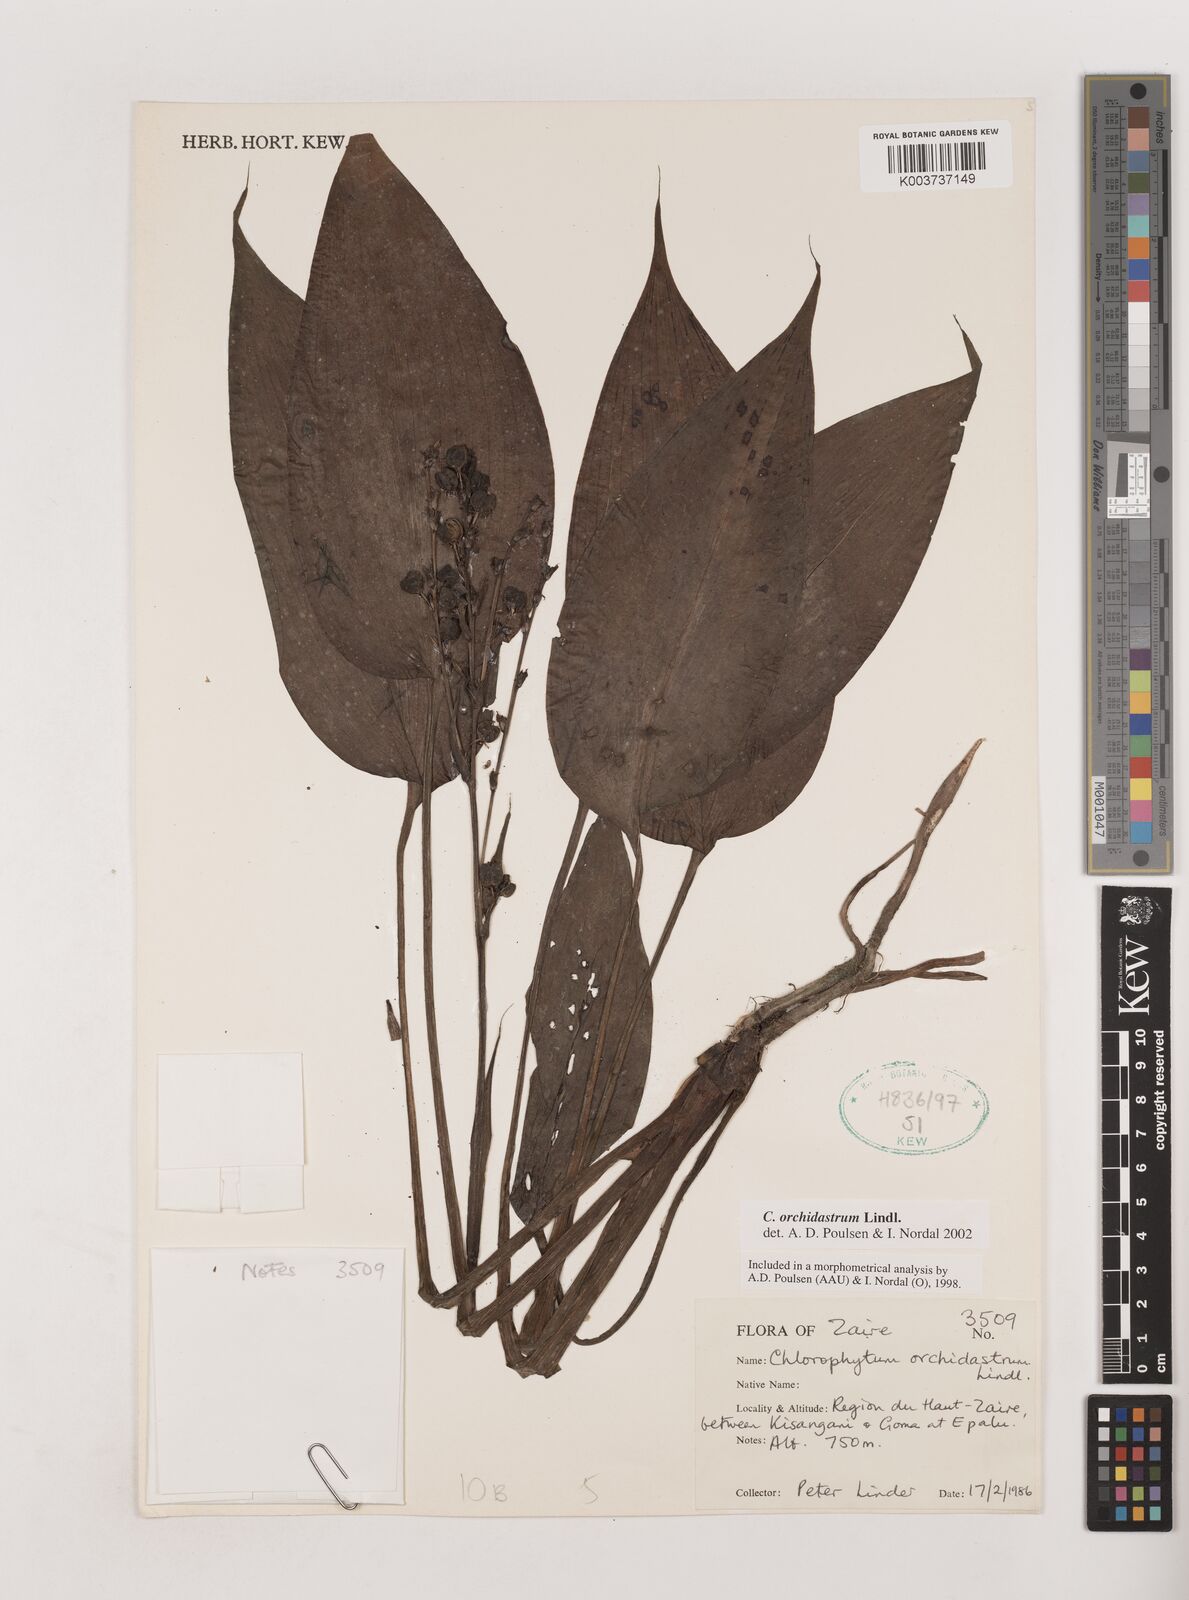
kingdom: Plantae
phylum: Tracheophyta
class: Liliopsida
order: Asparagales
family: Asparagaceae
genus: Chlorophytum
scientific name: Chlorophytum orchidastrum
